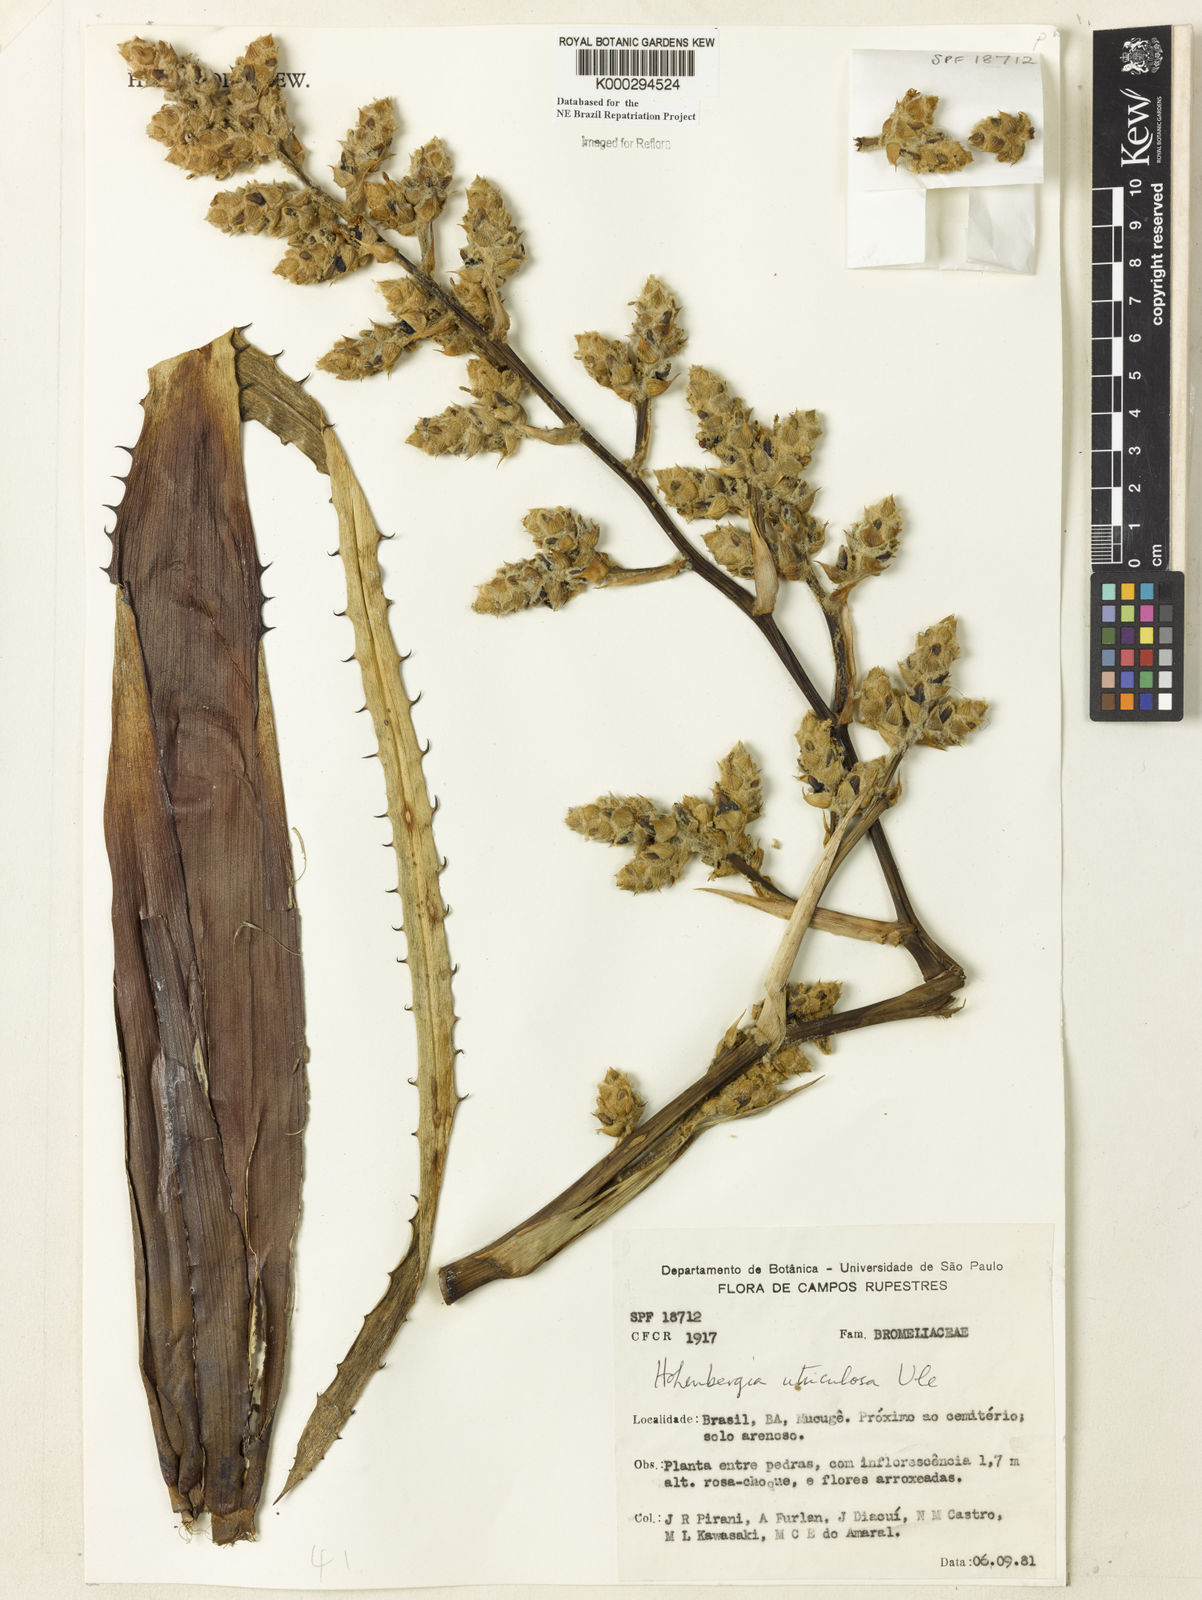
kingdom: Plantae
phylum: Tracheophyta
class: Liliopsida
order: Poales
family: Bromeliaceae
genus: Hohenbergia
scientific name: Hohenbergia utriculosa
